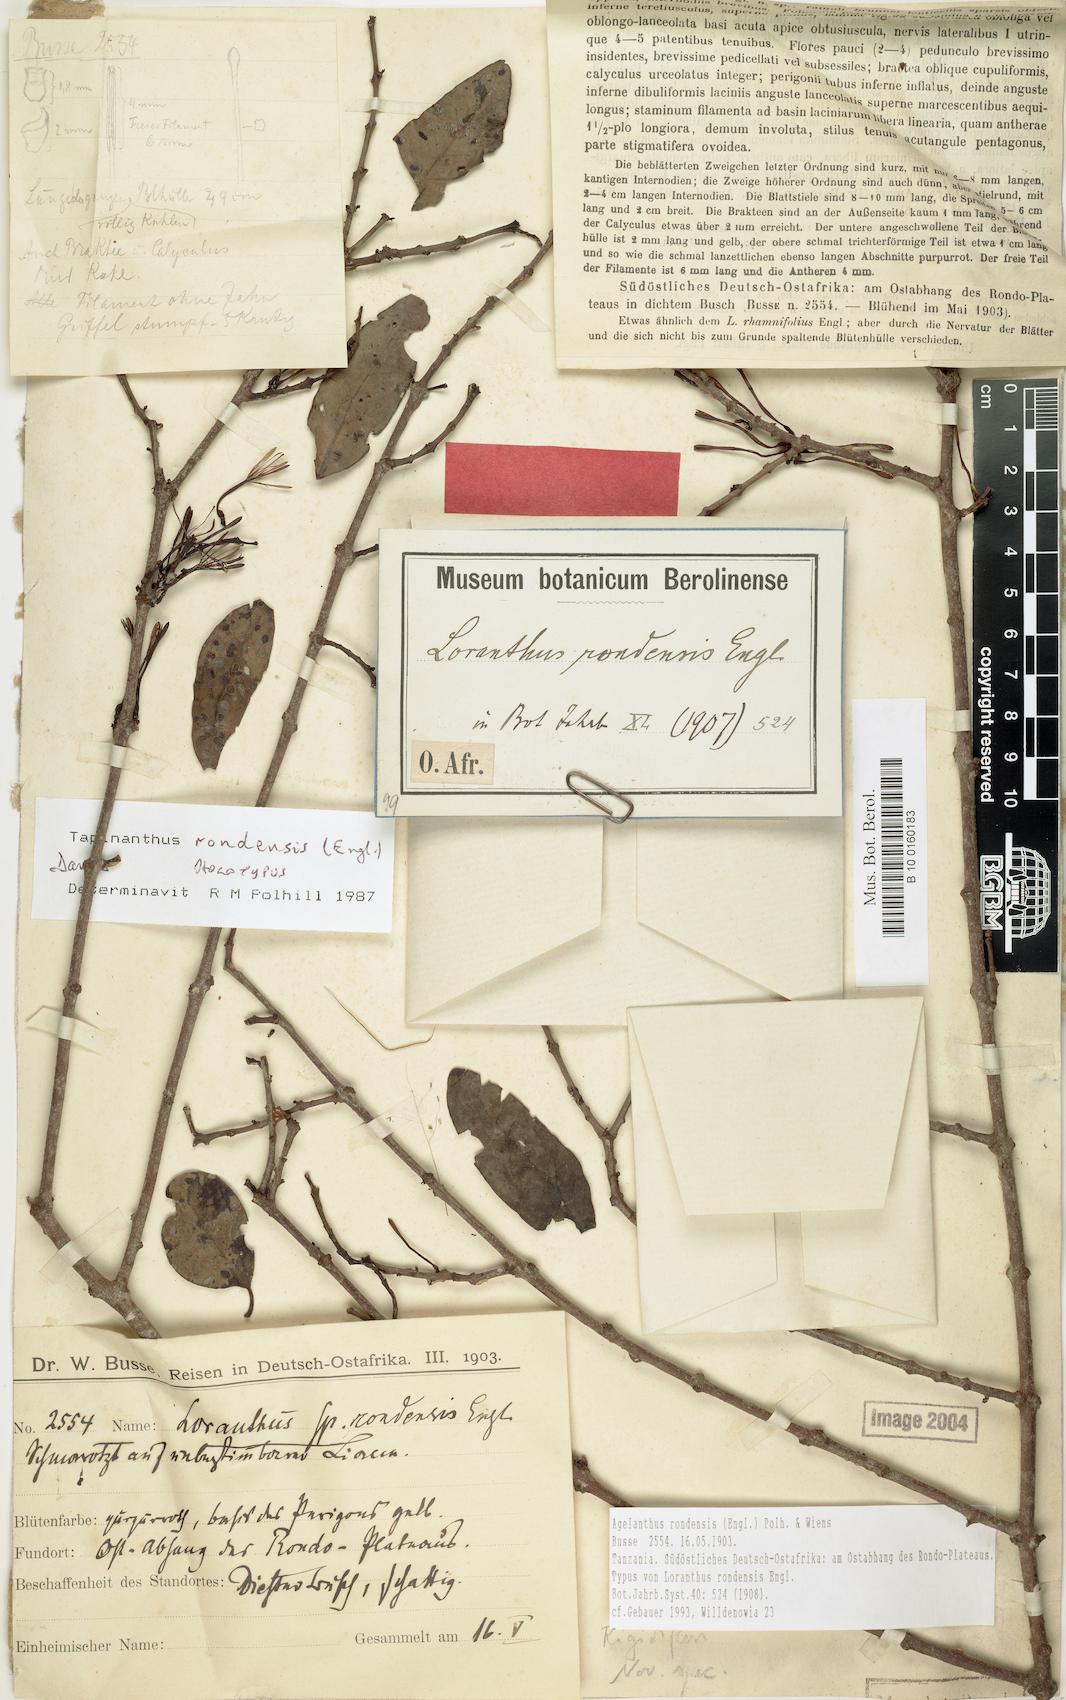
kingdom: Plantae
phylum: Tracheophyta
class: Magnoliopsida
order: Santalales
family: Loranthaceae
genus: Agelanthus
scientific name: Agelanthus rondensis
